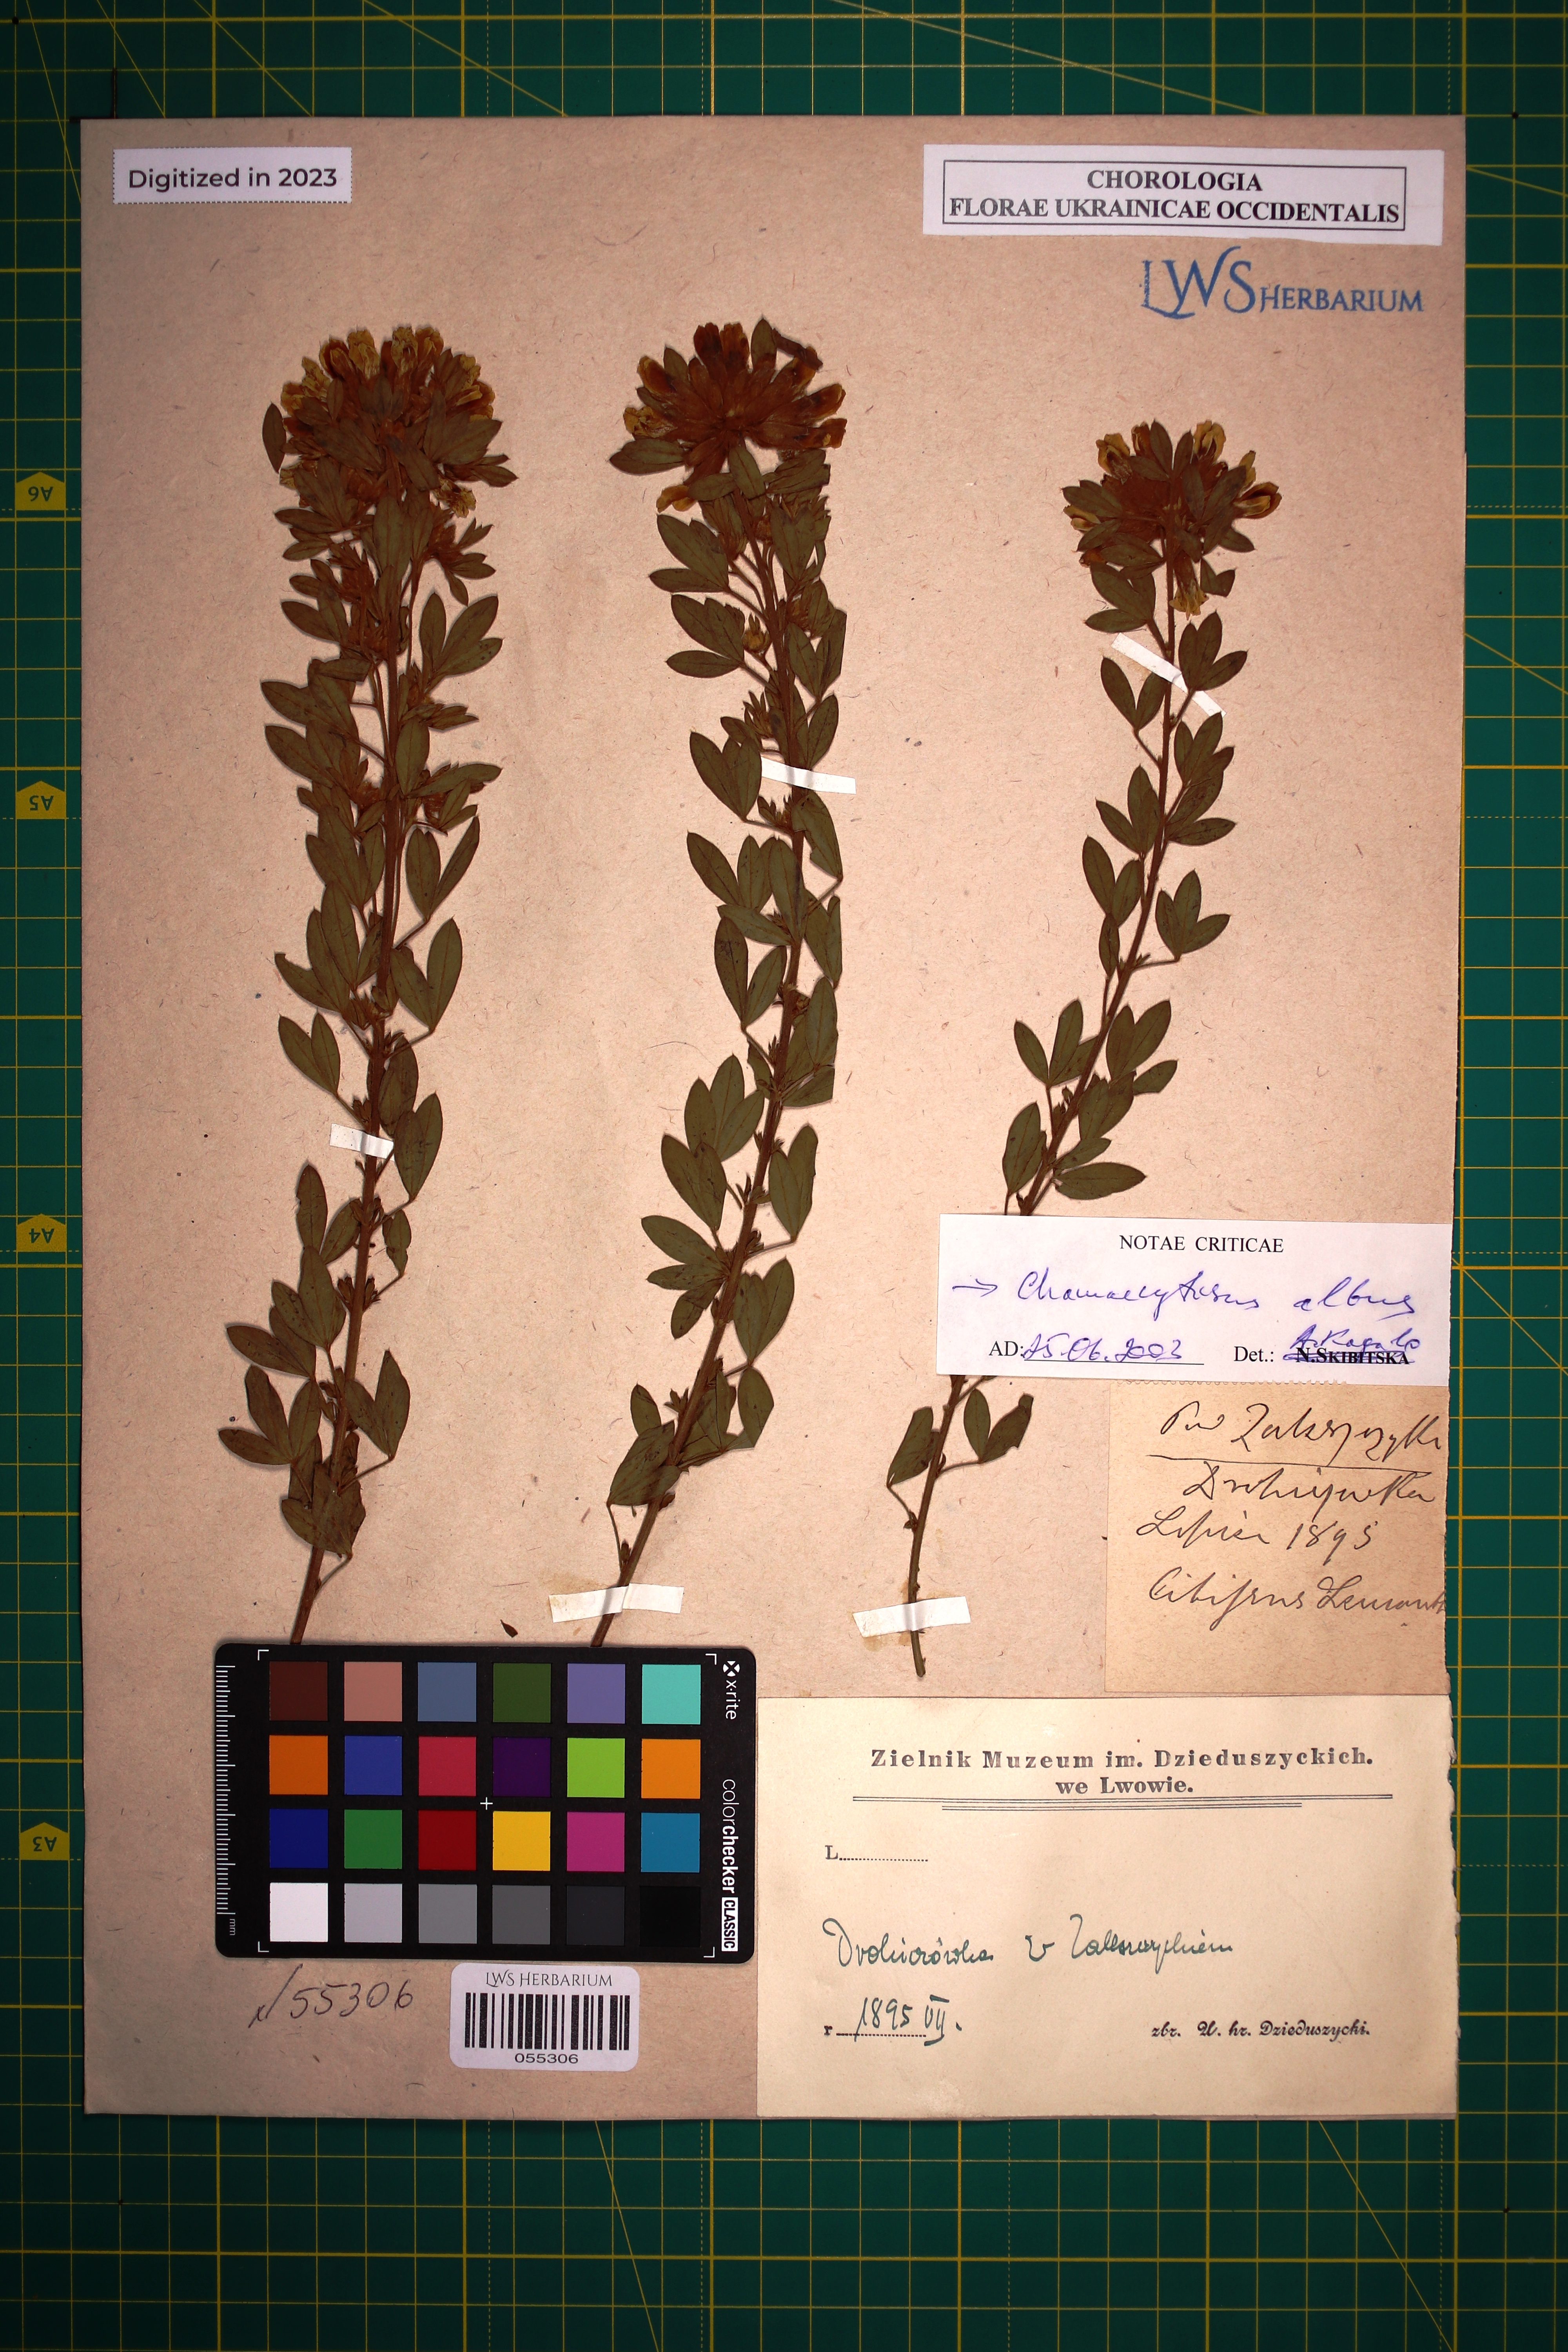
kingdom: Plantae
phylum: Tracheophyta
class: Magnoliopsida
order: Fabales
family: Fabaceae
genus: Chamaecytisus
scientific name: Chamaecytisus albus
